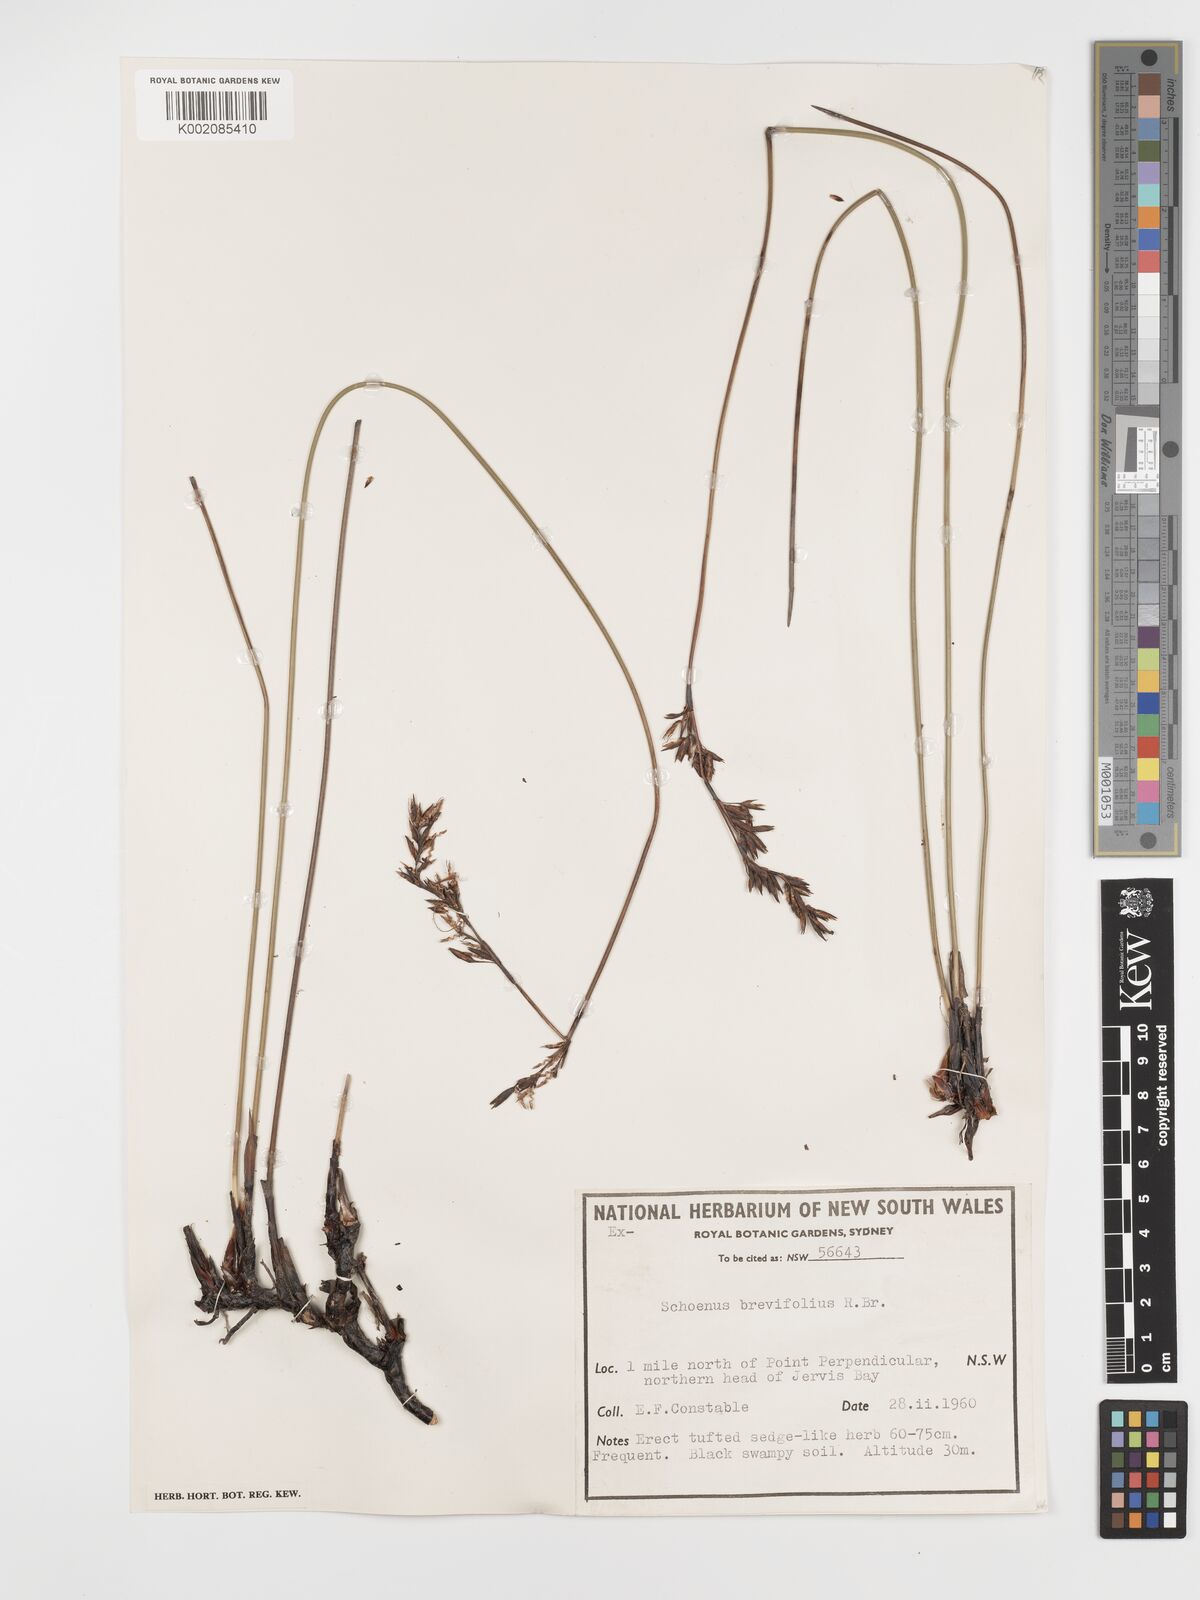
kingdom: Plantae
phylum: Tracheophyta
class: Liliopsida
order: Poales
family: Cyperaceae
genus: Schoenus
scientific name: Schoenus brevifolius
